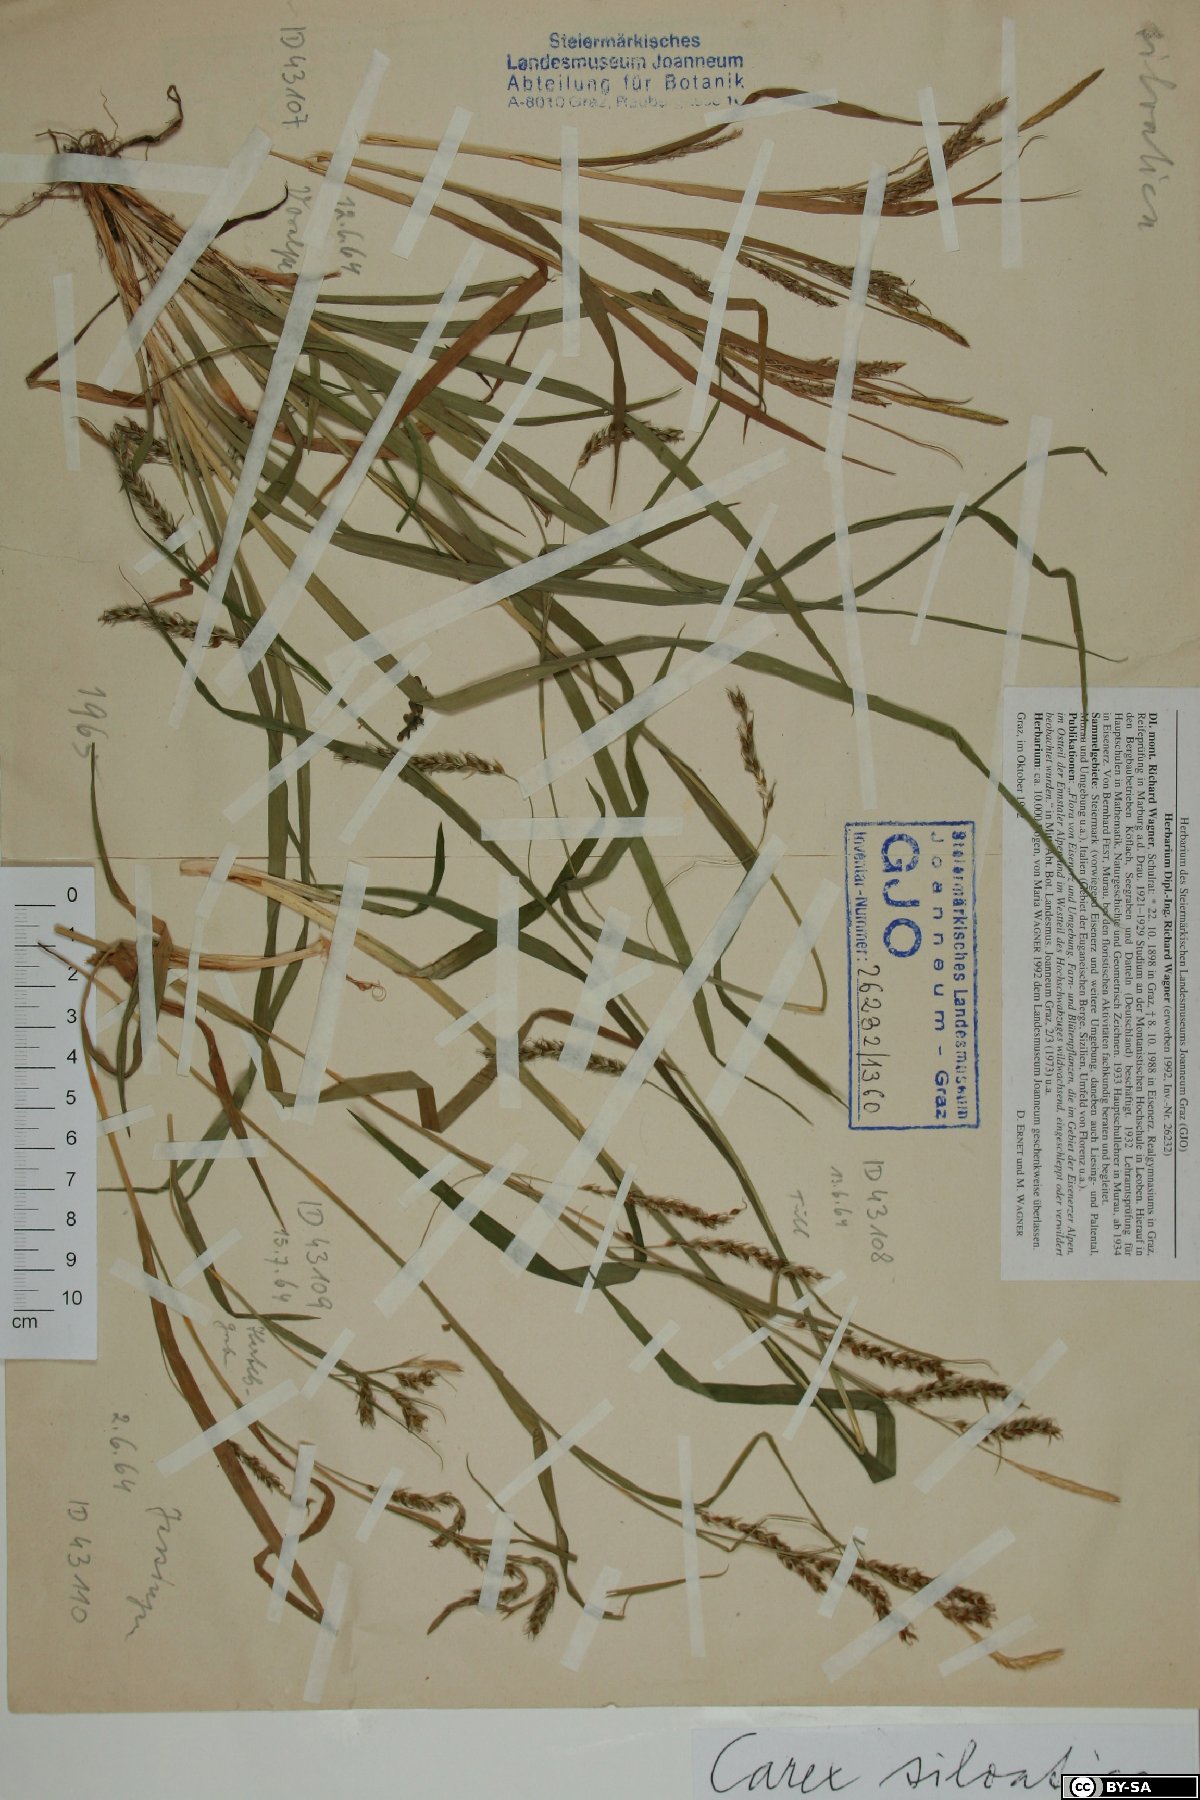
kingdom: Plantae
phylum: Tracheophyta
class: Liliopsida
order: Poales
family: Cyperaceae
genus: Carex
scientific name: Carex sylvatica
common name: Wood-sedge
